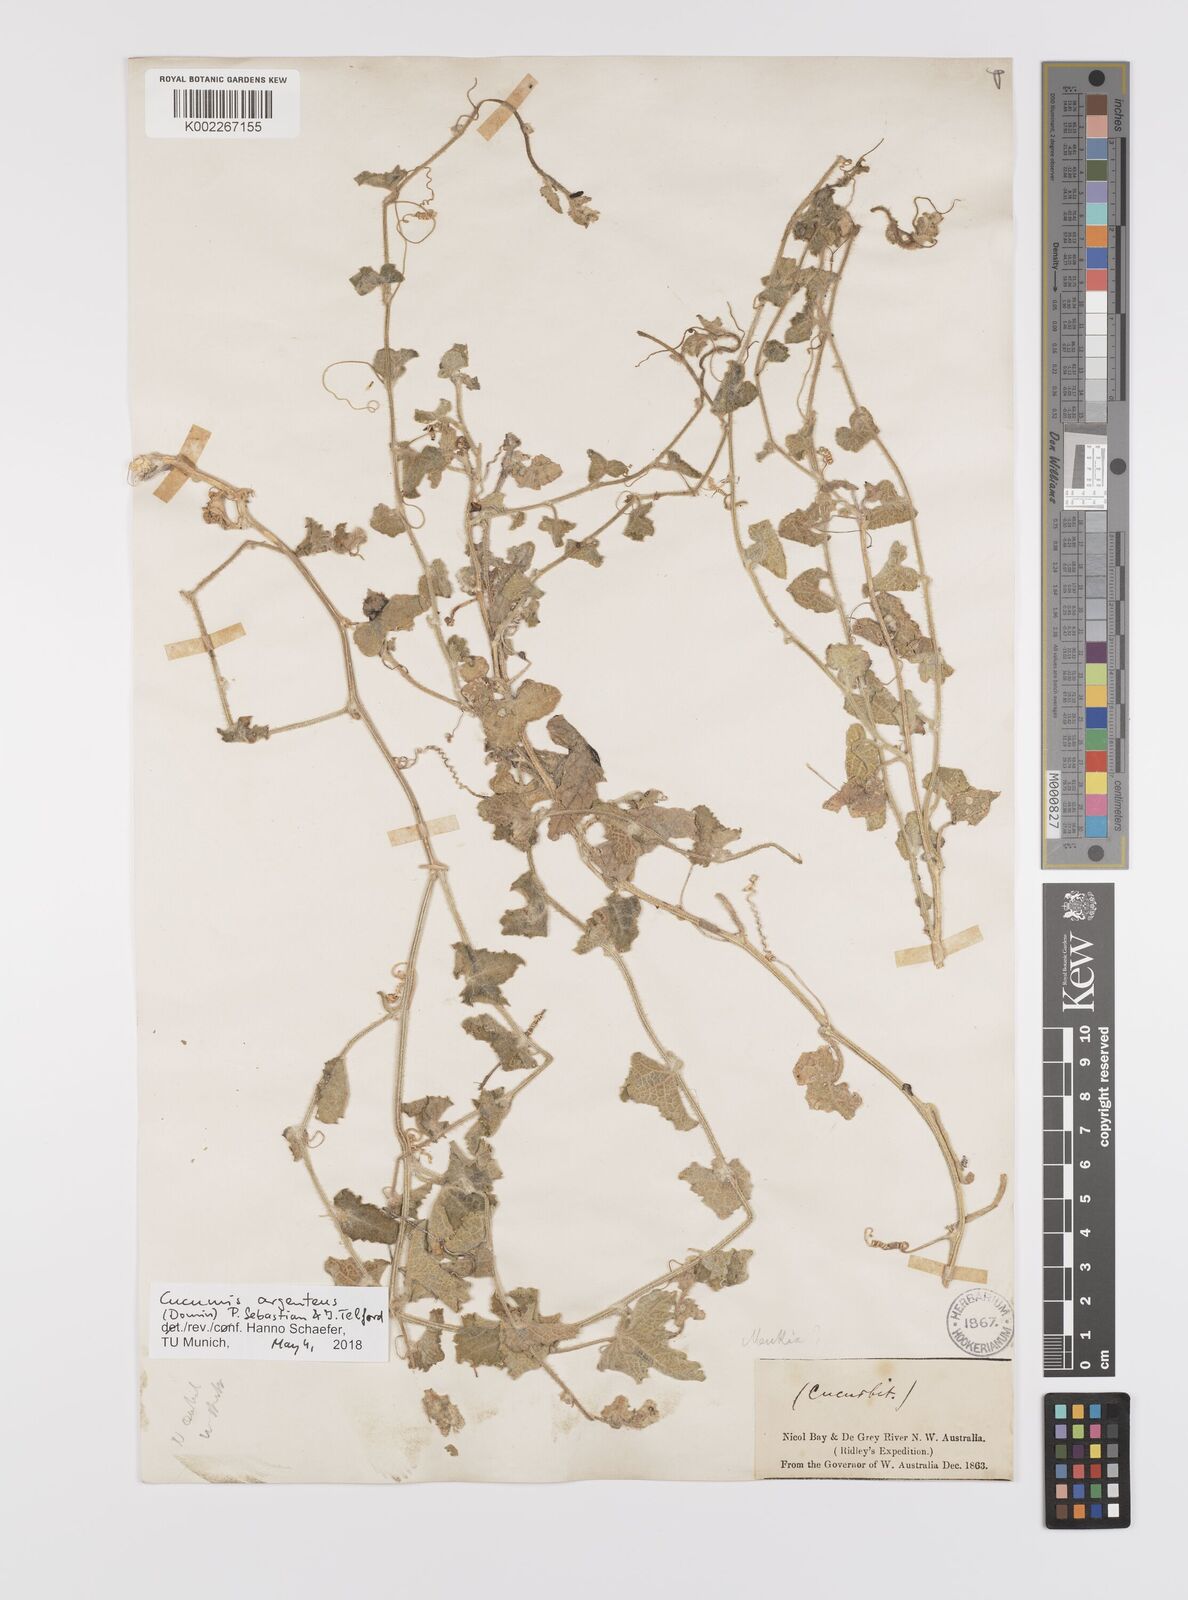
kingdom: Plantae
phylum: Tracheophyta
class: Magnoliopsida
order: Cucurbitales
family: Cucurbitaceae
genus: Cucumis
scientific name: Cucumis argenteus
